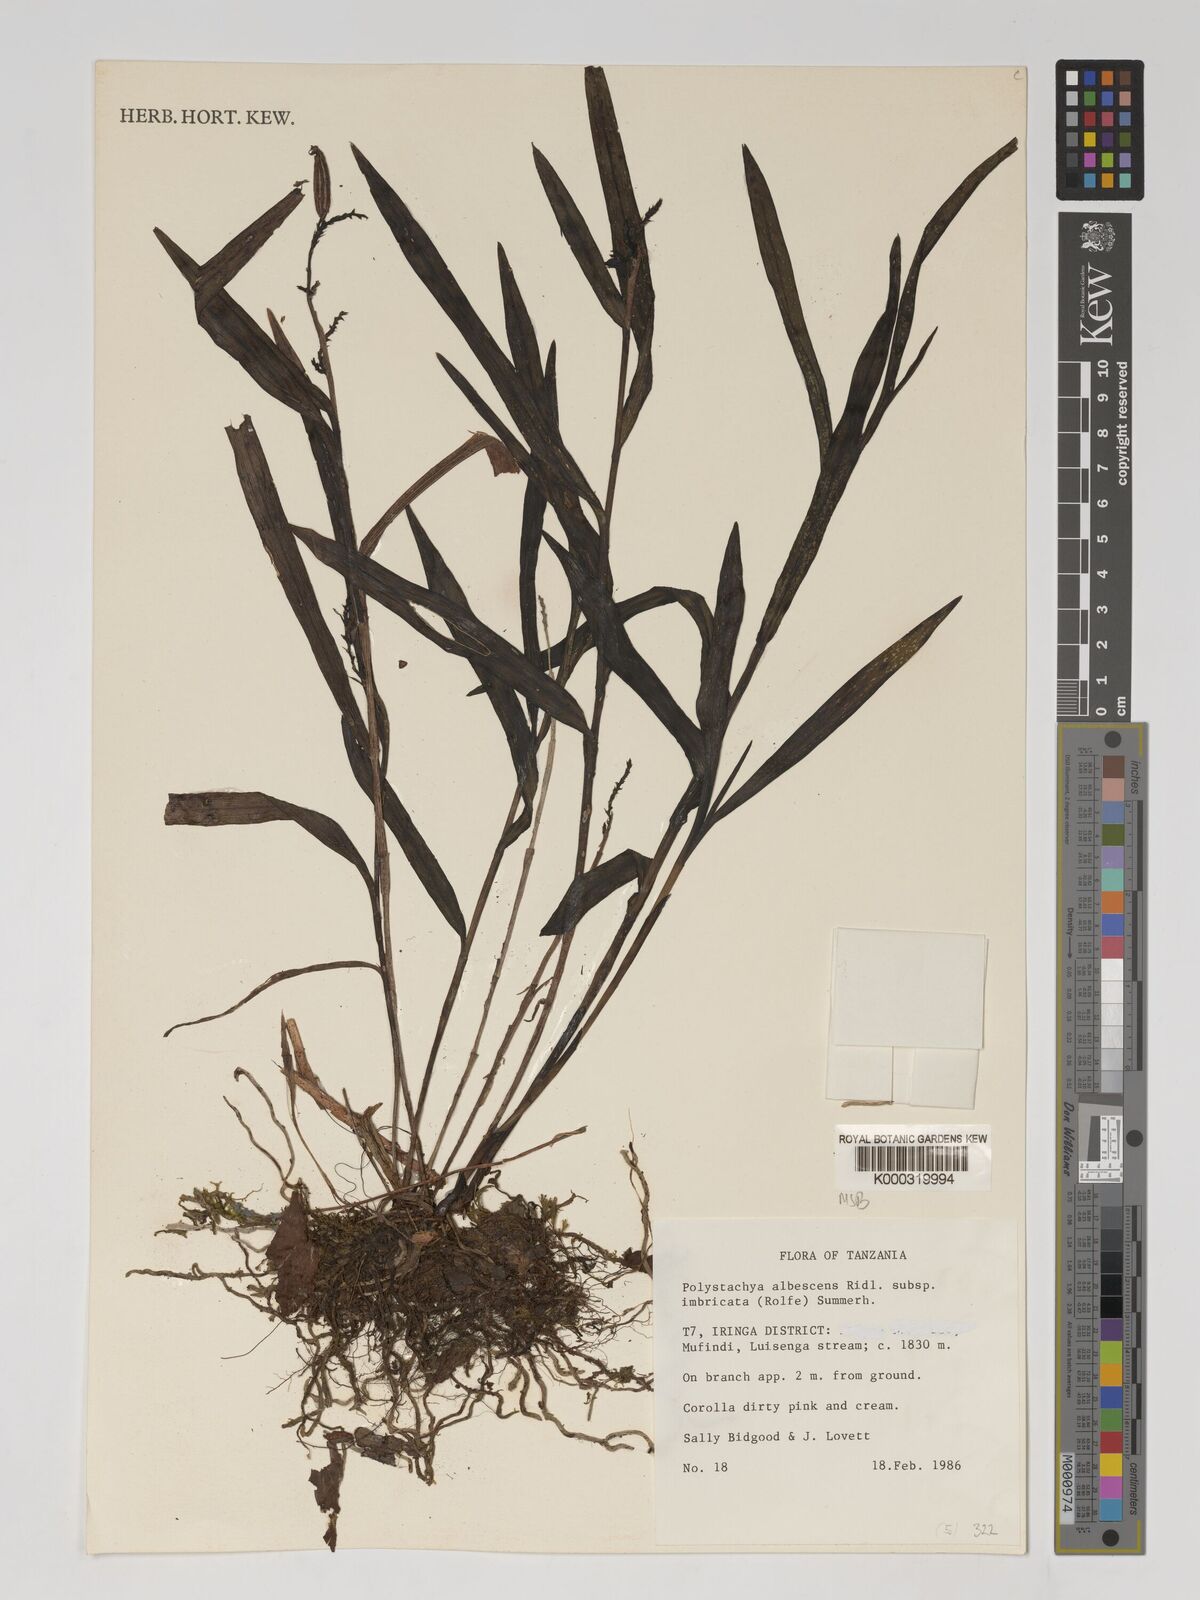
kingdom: Plantae
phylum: Tracheophyta
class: Liliopsida
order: Asparagales
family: Orchidaceae
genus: Polystachya
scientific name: Polystachya albescens
